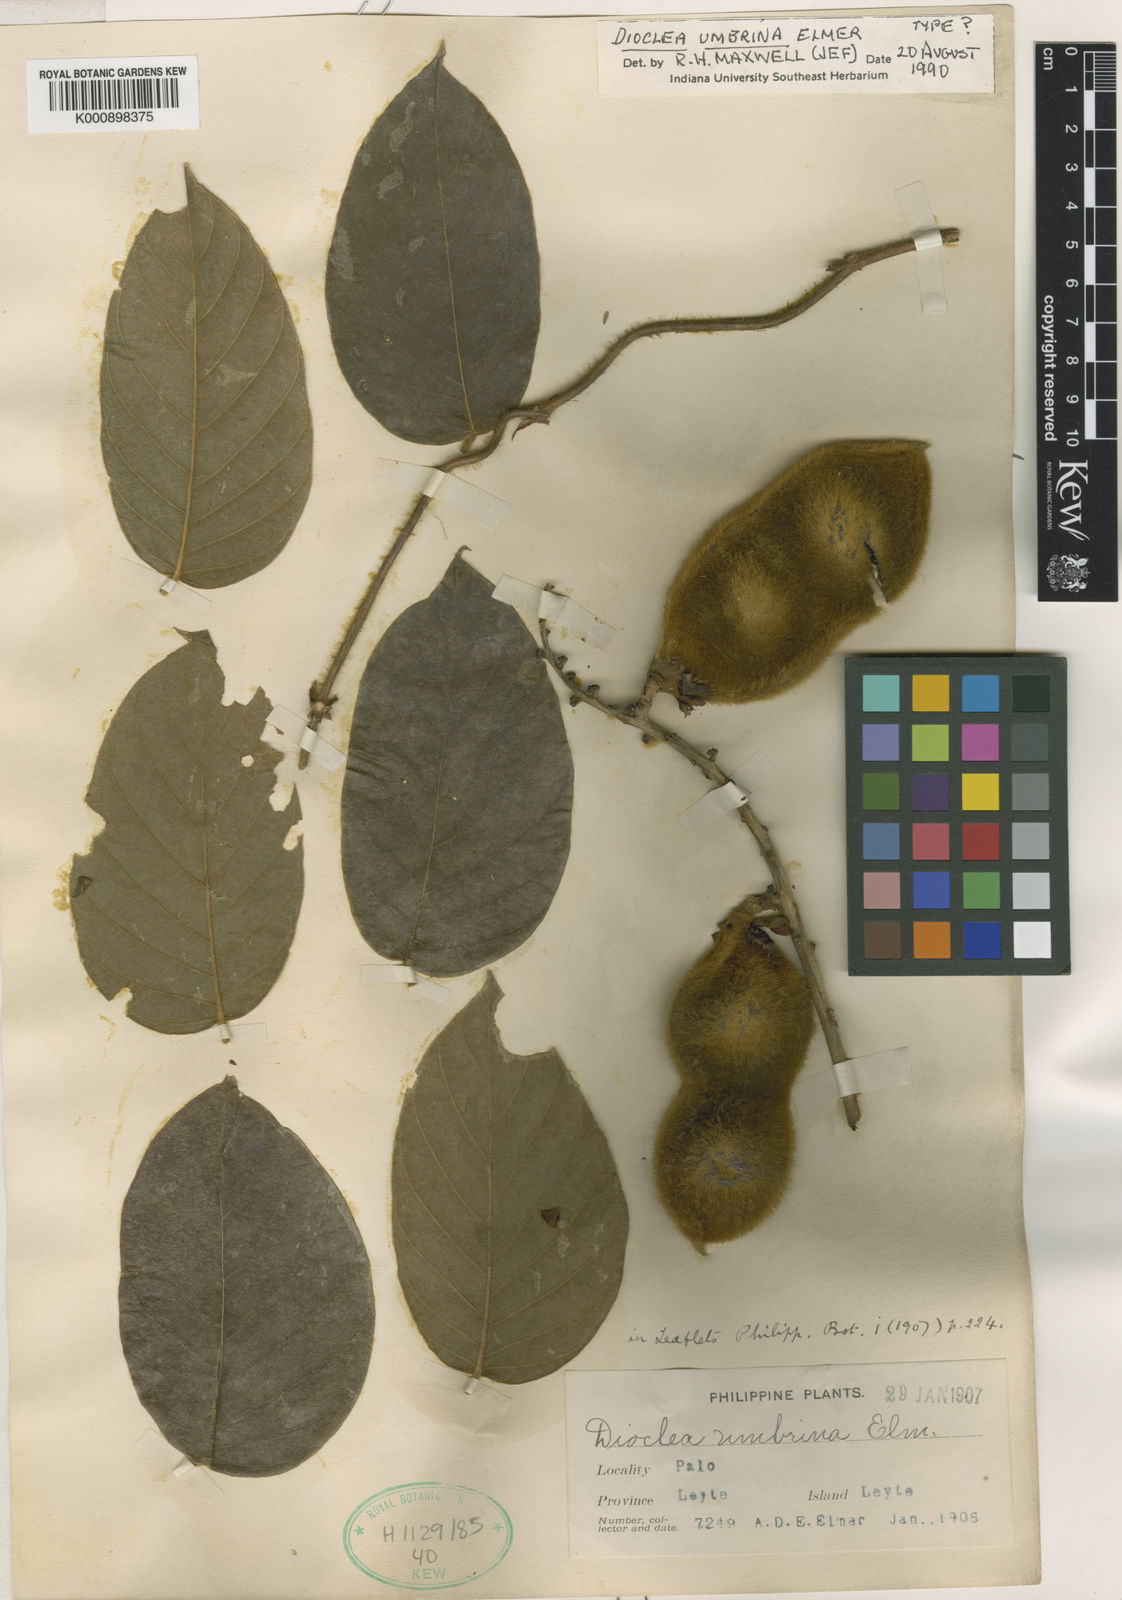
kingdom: Plantae
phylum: Tracheophyta
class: Magnoliopsida
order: Fabales
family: Fabaceae
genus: Macropsychanthus
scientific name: Macropsychanthus umbrinus
